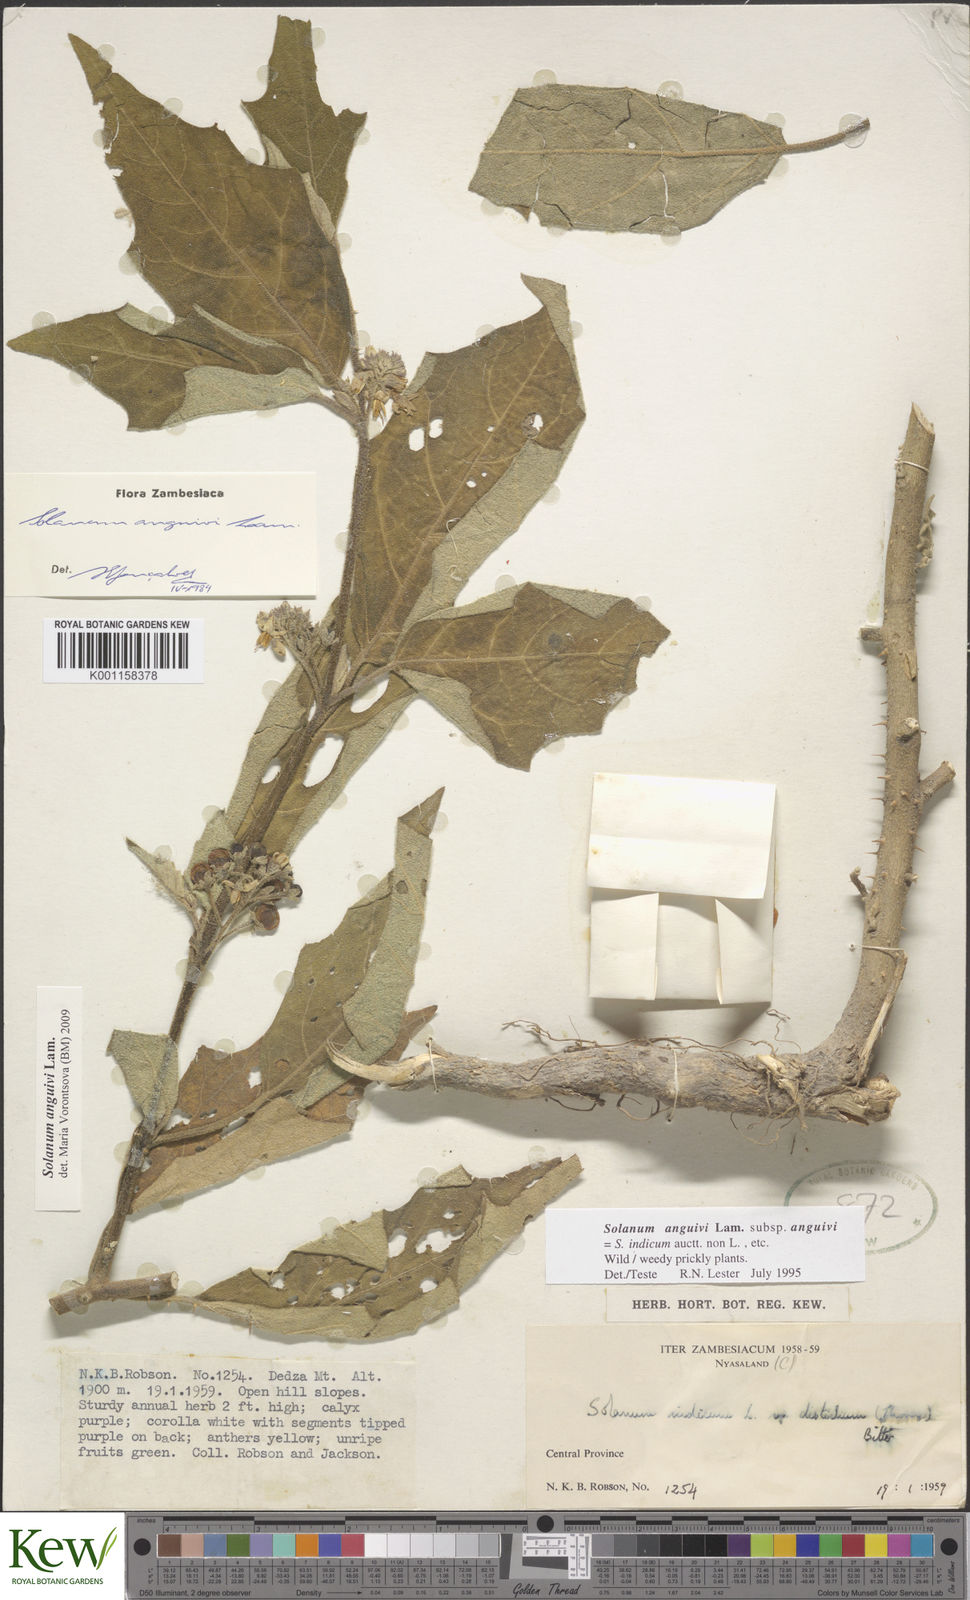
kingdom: Plantae
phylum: Tracheophyta
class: Magnoliopsida
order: Solanales
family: Solanaceae
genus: Solanum
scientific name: Solanum anguivi
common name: Forest bitterberry
